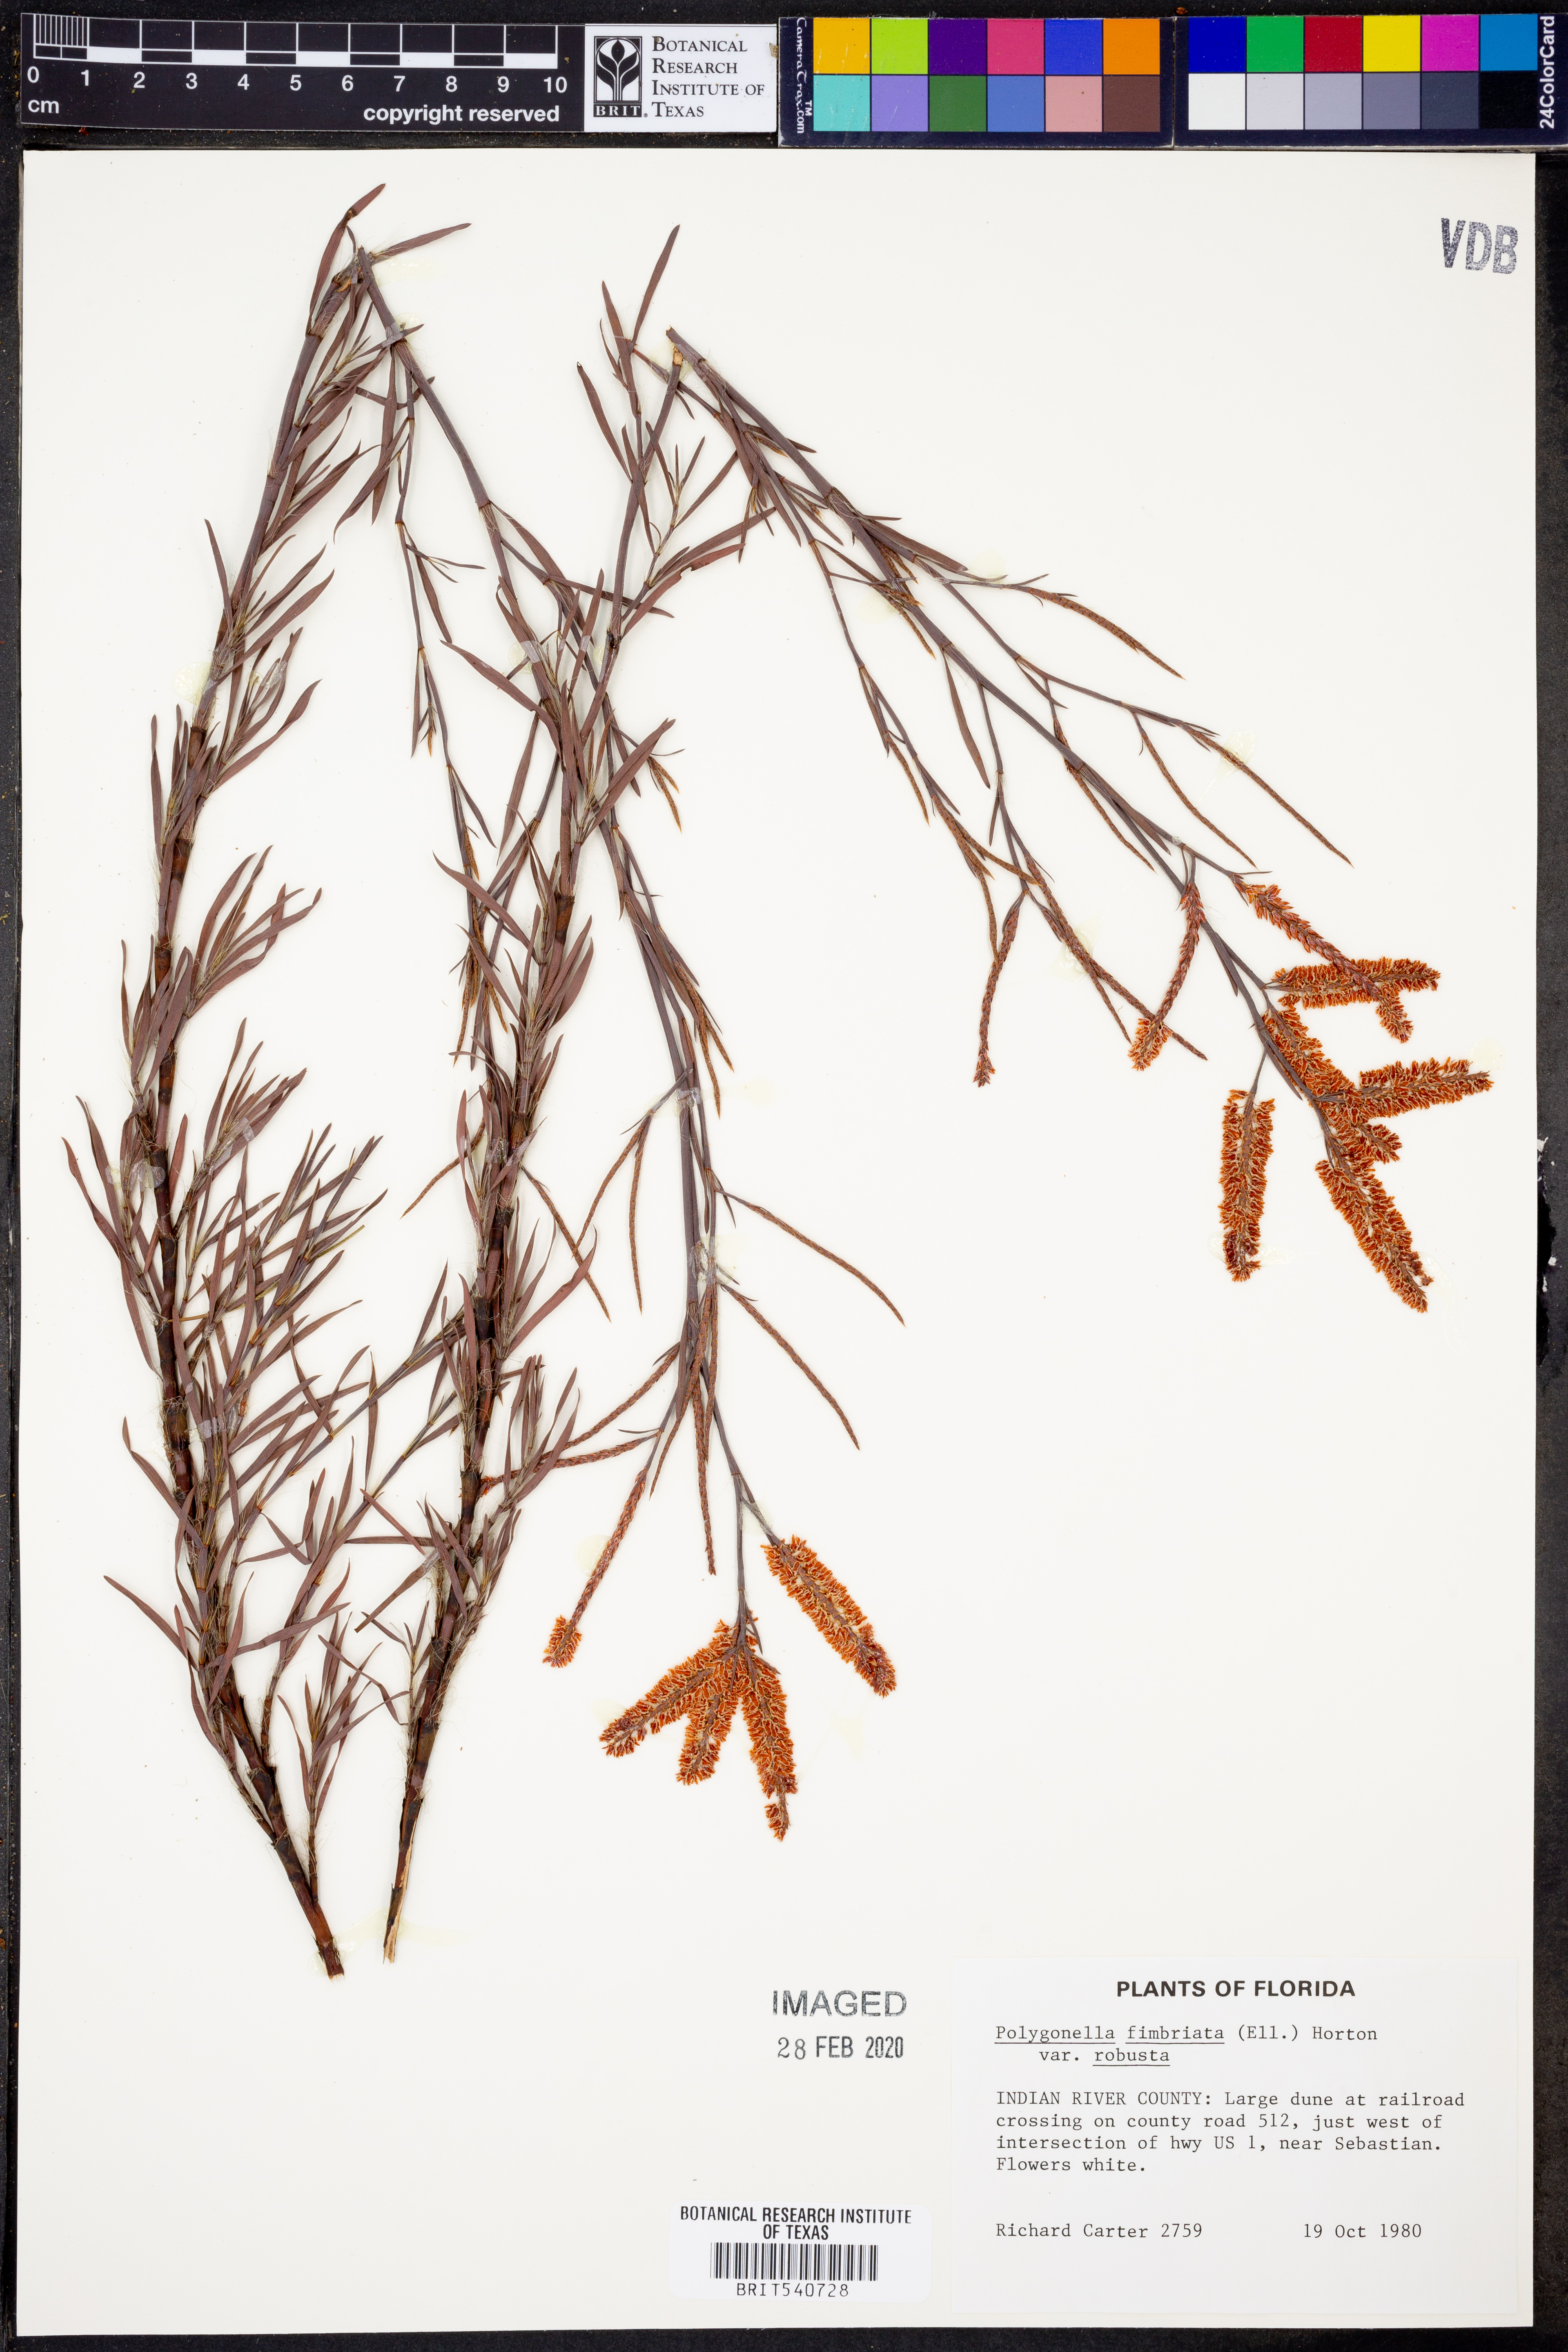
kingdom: Plantae
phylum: Tracheophyta
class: Magnoliopsida
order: Caryophyllales
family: Polygonaceae
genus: Polygonella
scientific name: Polygonella robusta
